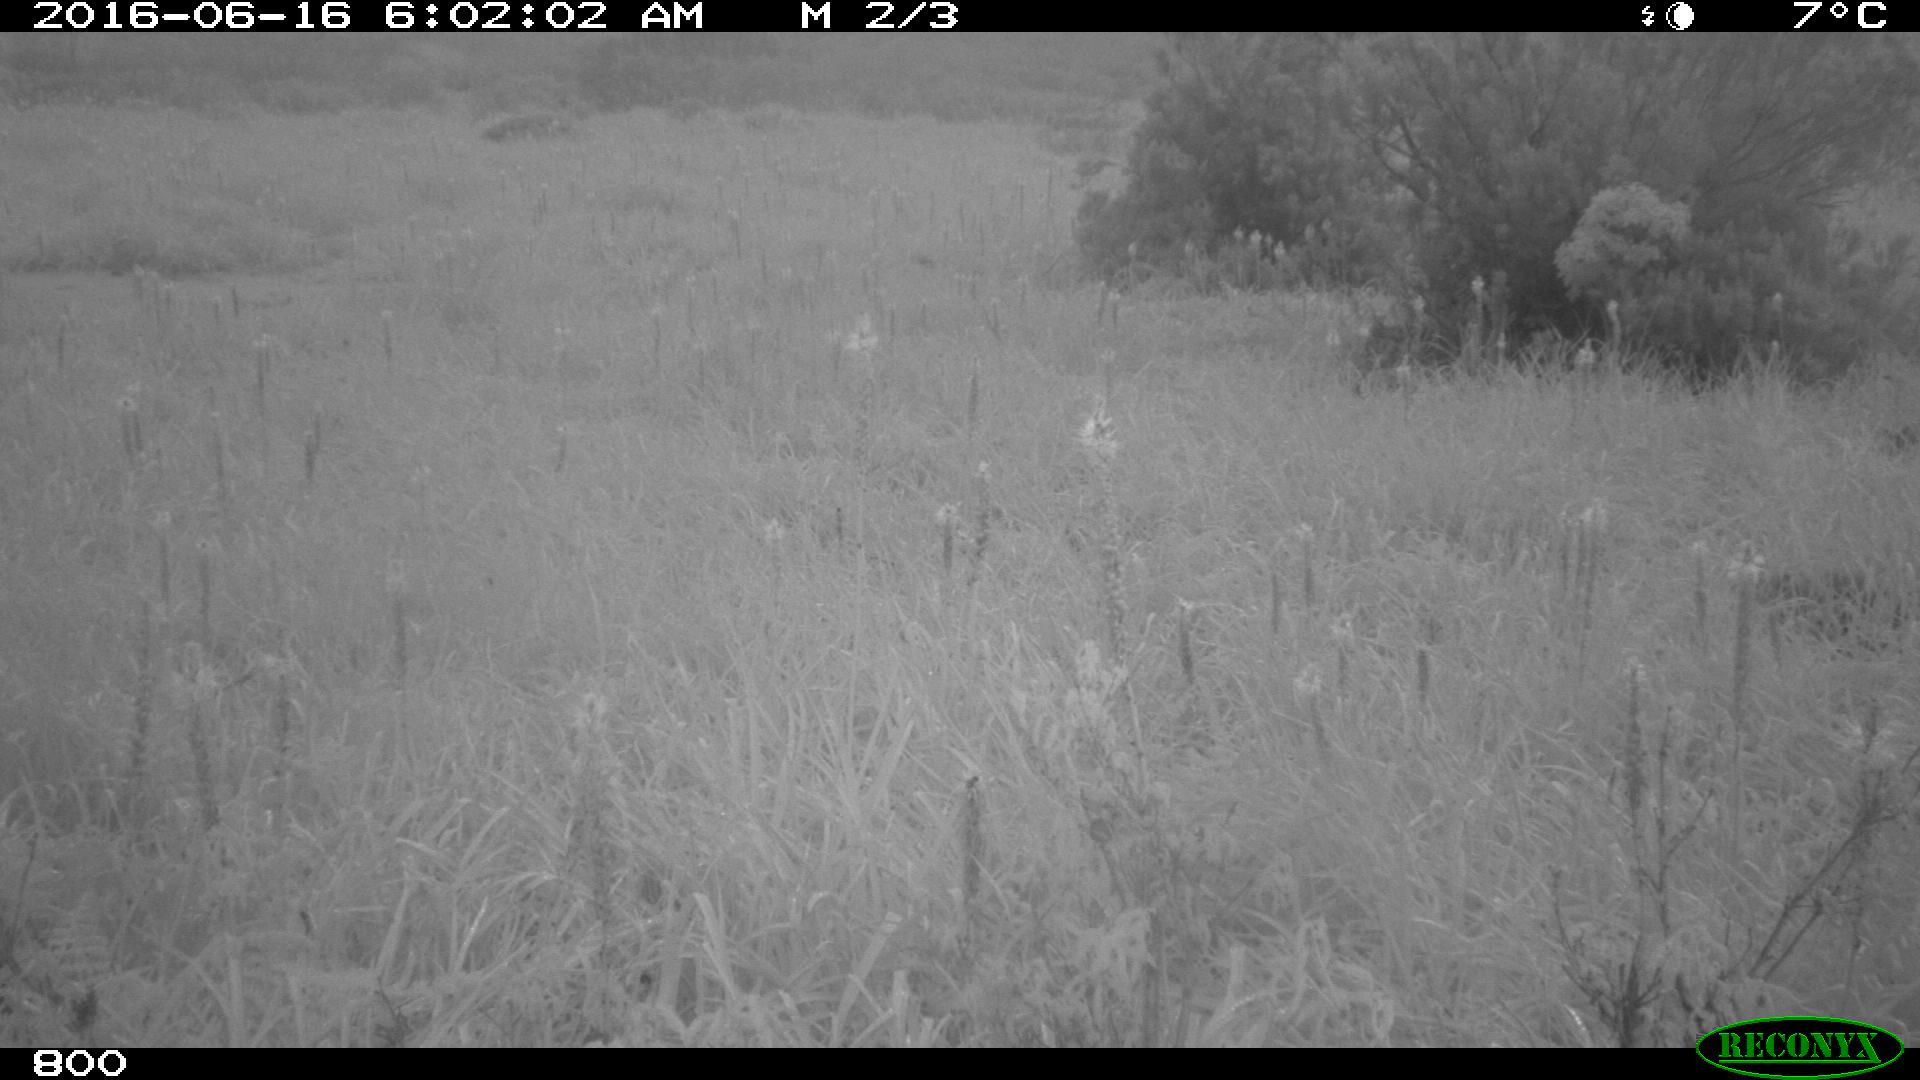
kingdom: Animalia
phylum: Chordata
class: Mammalia
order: Artiodactyla
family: Cervidae
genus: Capreolus
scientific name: Capreolus capreolus
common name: Western roe deer
